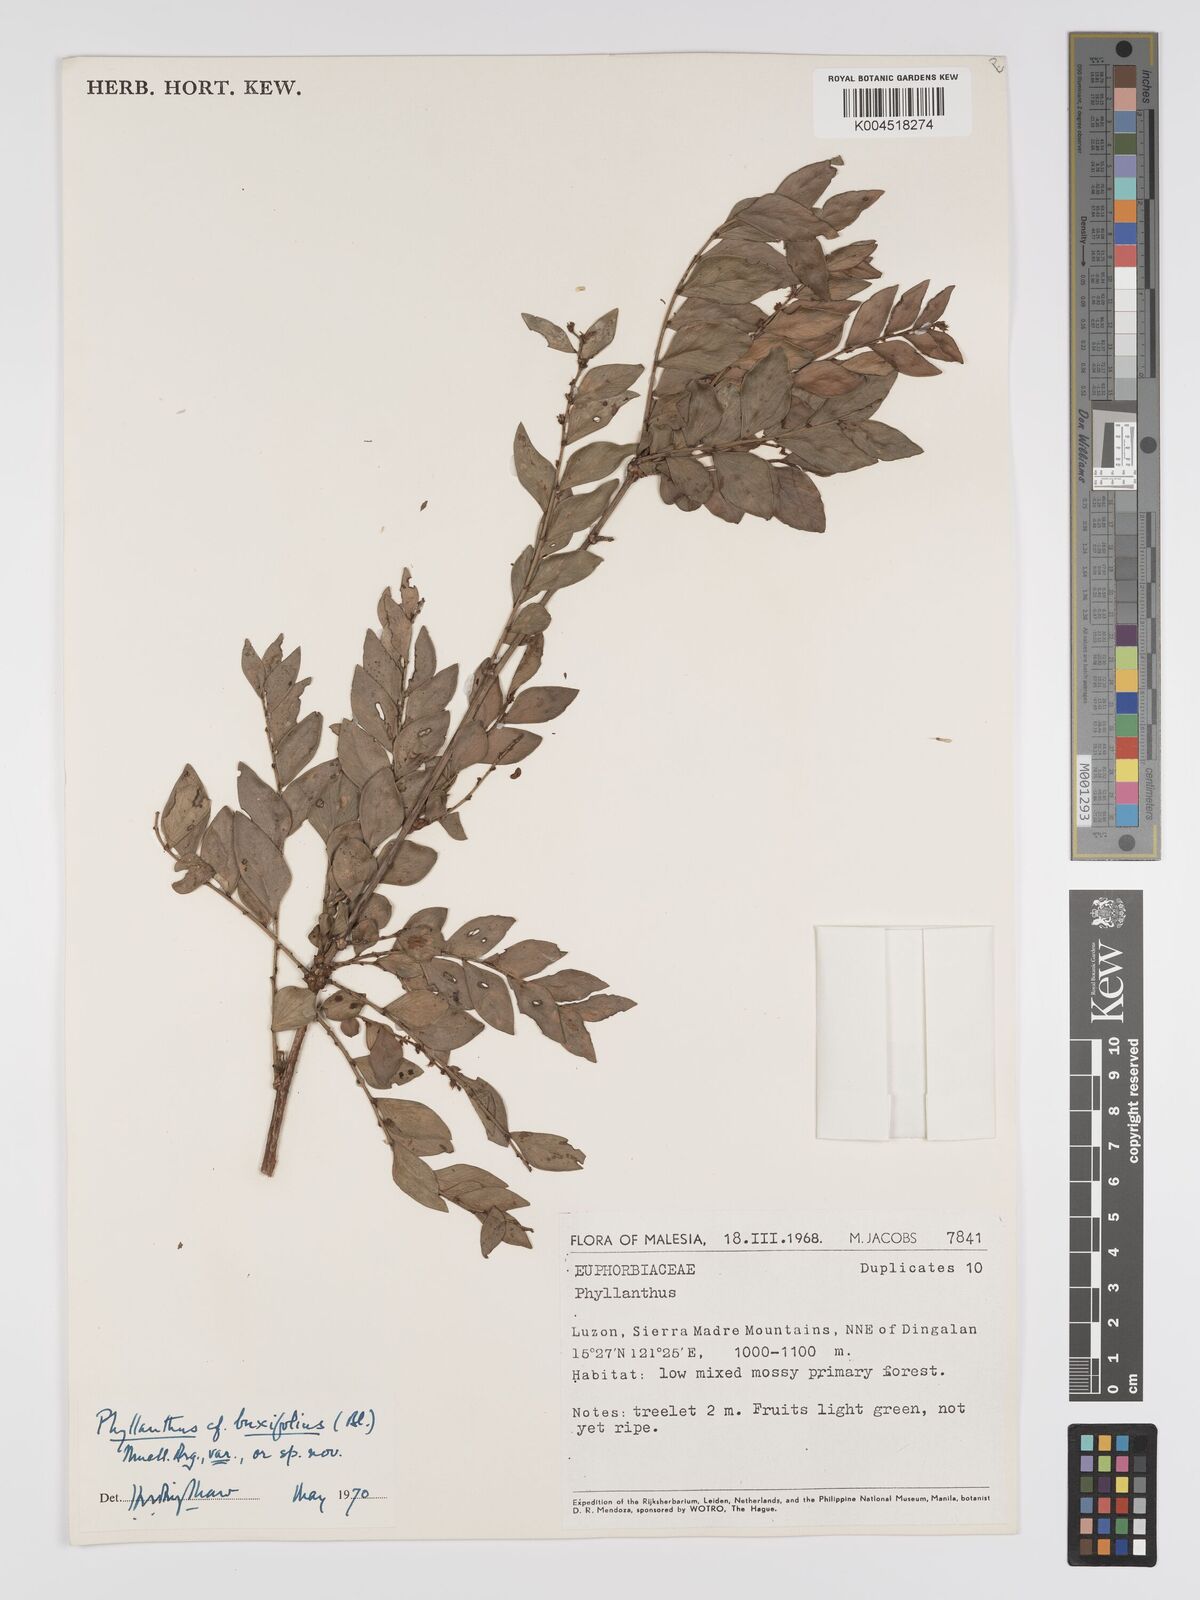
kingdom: Plantae
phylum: Tracheophyta
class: Magnoliopsida
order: Malpighiales
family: Phyllanthaceae
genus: Phyllanthus
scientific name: Phyllanthus buxifolius
